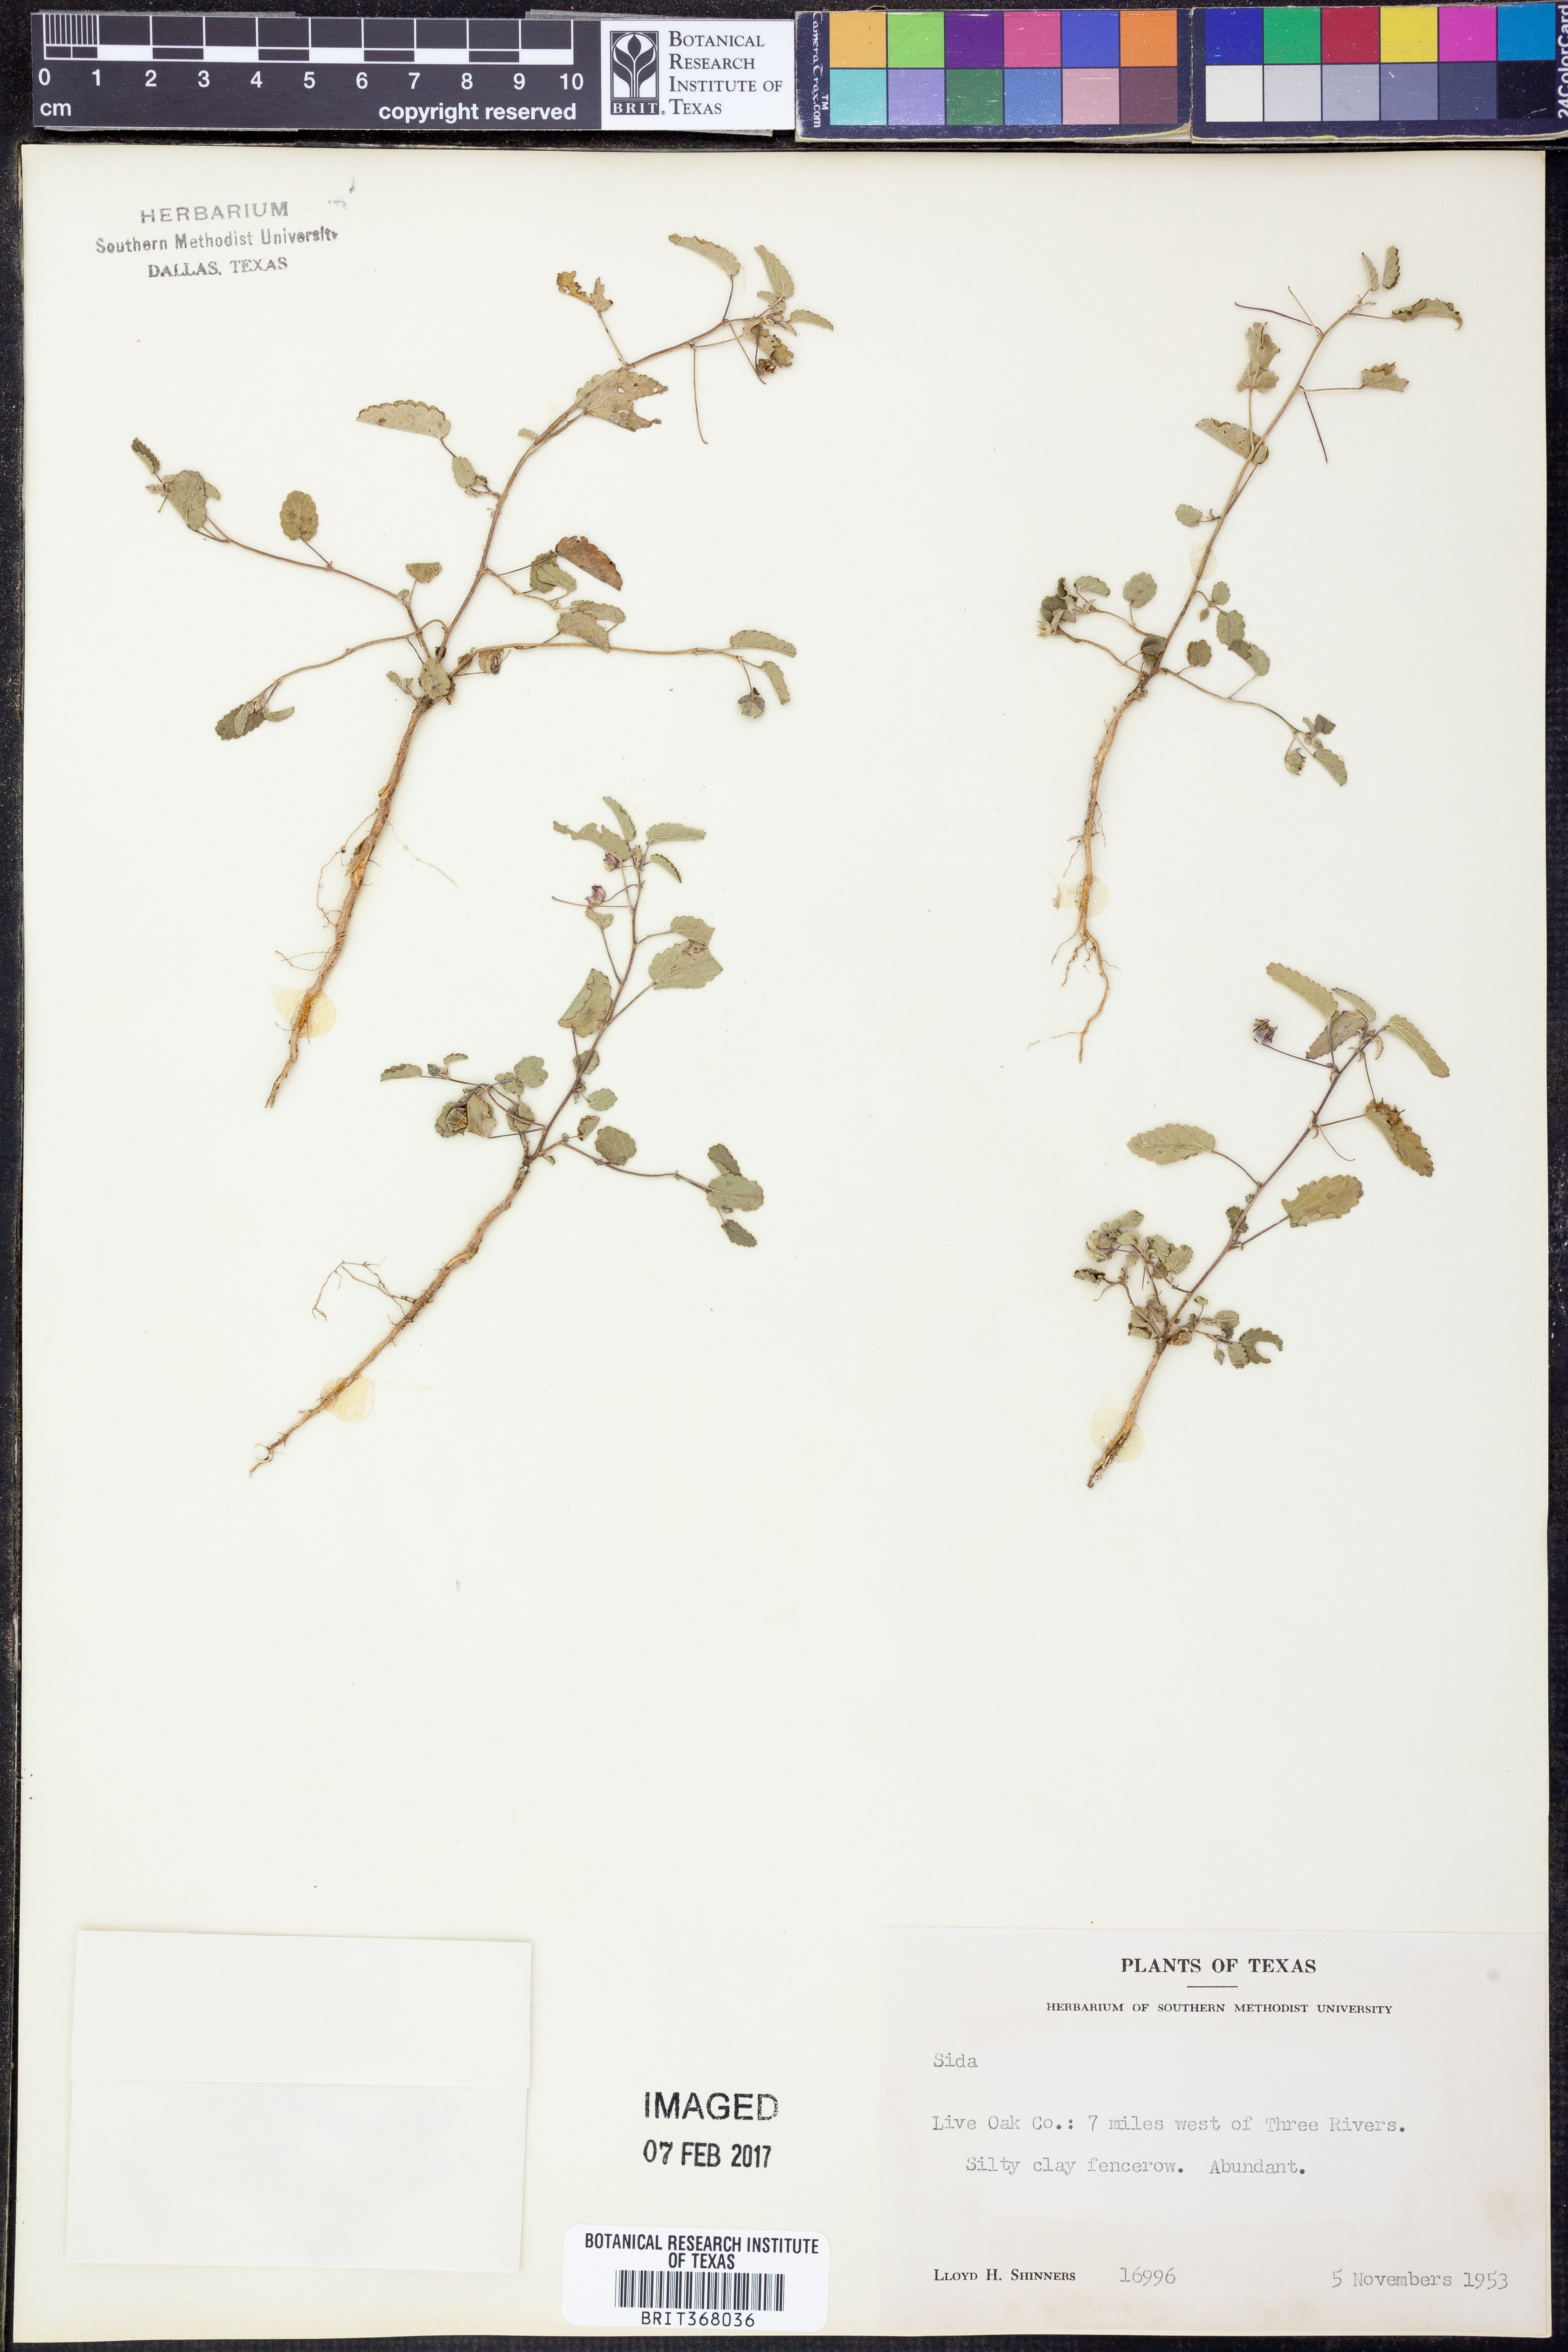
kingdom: Plantae
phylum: Tracheophyta
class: Magnoliopsida
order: Malvales
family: Malvaceae
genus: Sida
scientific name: Sida
